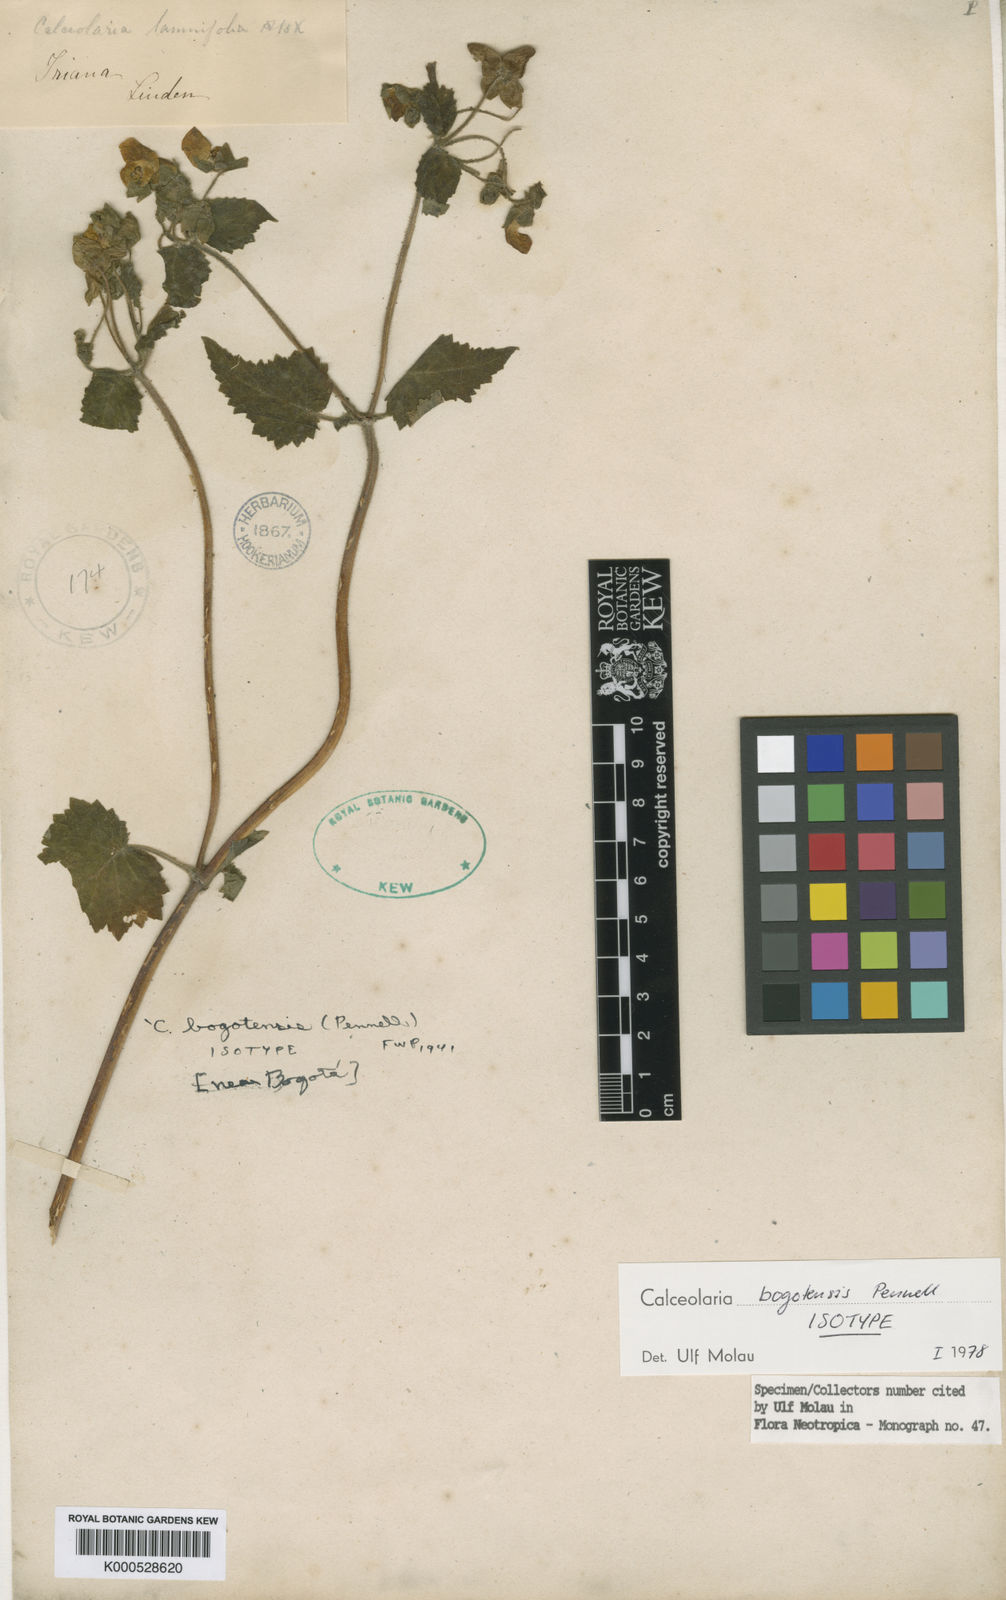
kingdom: Plantae
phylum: Tracheophyta
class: Magnoliopsida
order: Lamiales
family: Calceolariaceae
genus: Calceolaria
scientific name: Calceolaria bogotensis
